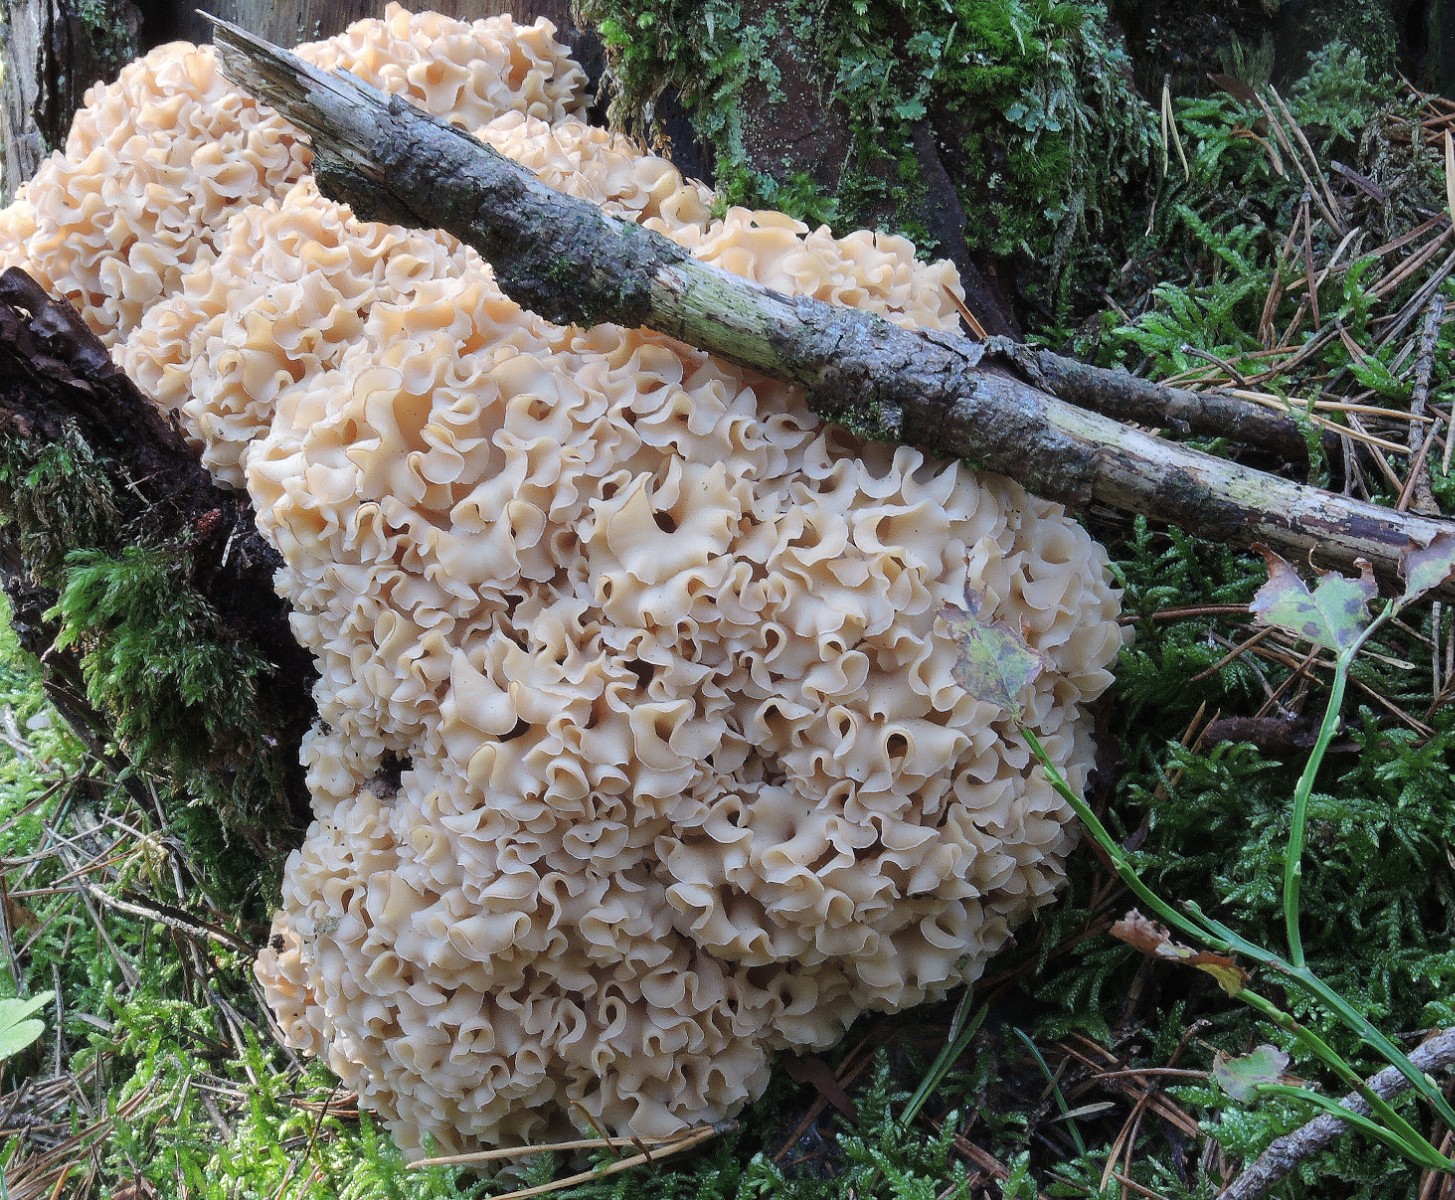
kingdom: Fungi
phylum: Basidiomycota
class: Agaricomycetes
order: Polyporales
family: Sparassidaceae
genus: Sparassis
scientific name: Sparassis crispa
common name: kruset blomkålssvamp
